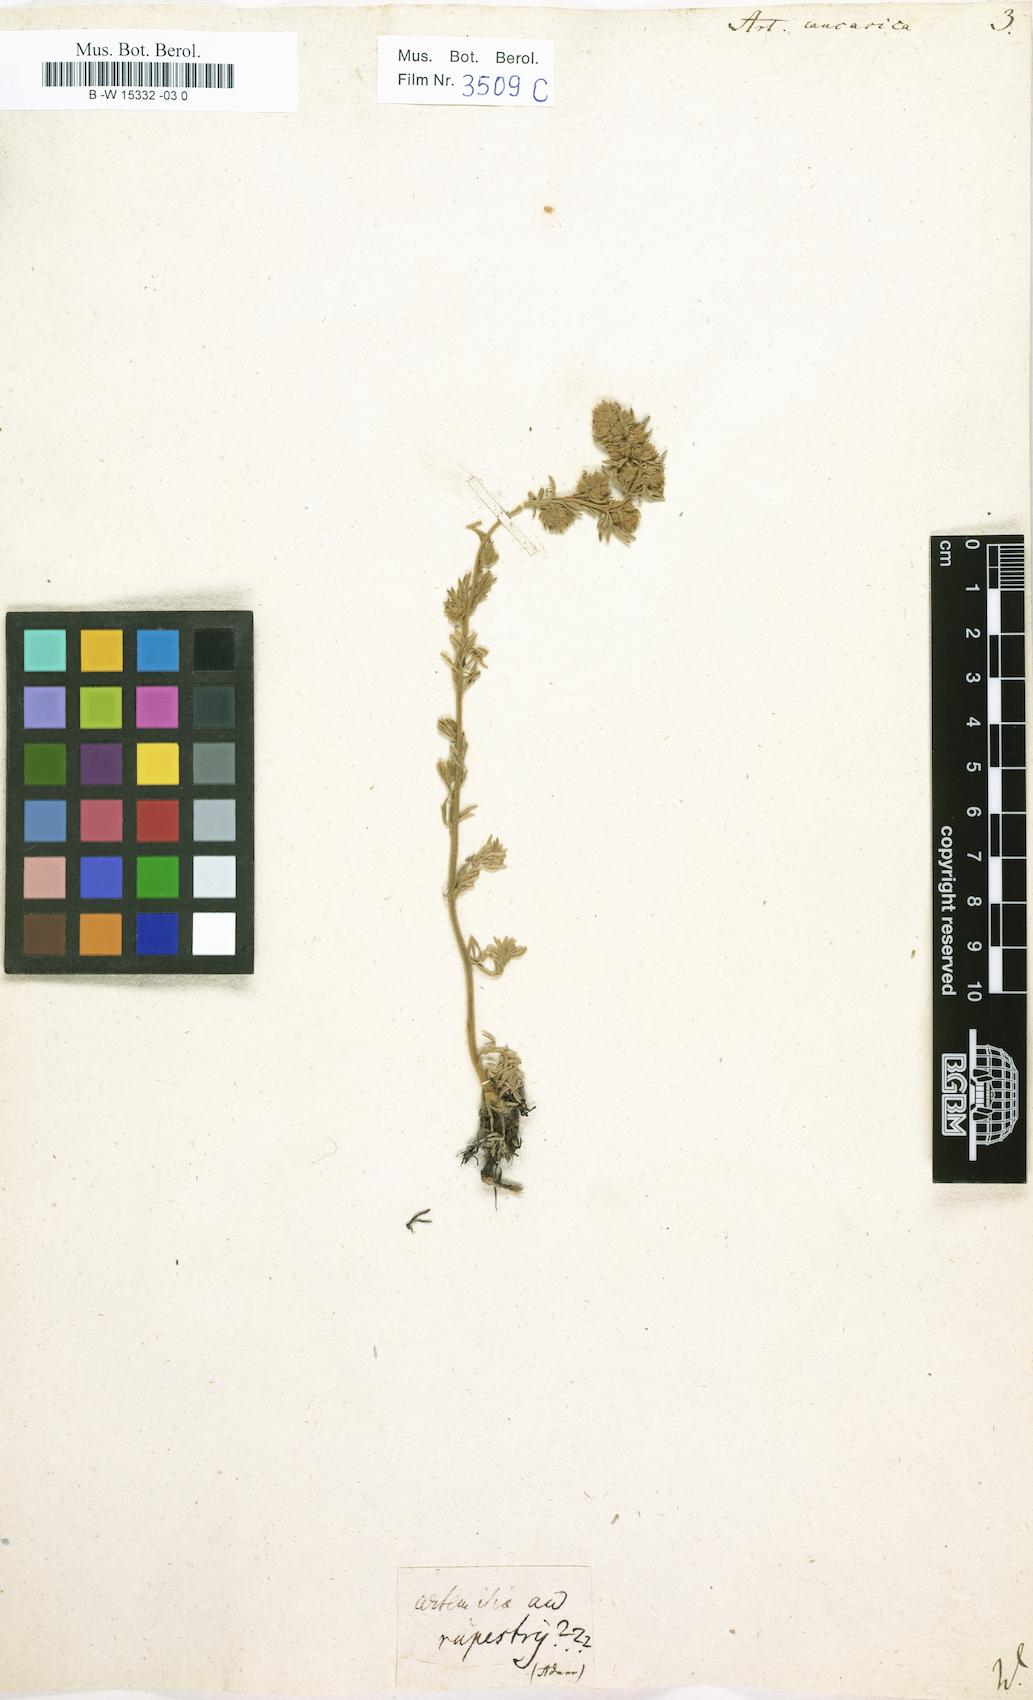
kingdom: Plantae
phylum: Tracheophyta
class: Magnoliopsida
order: Asterales
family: Asteraceae
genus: Artemisia
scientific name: Artemisia alpina
